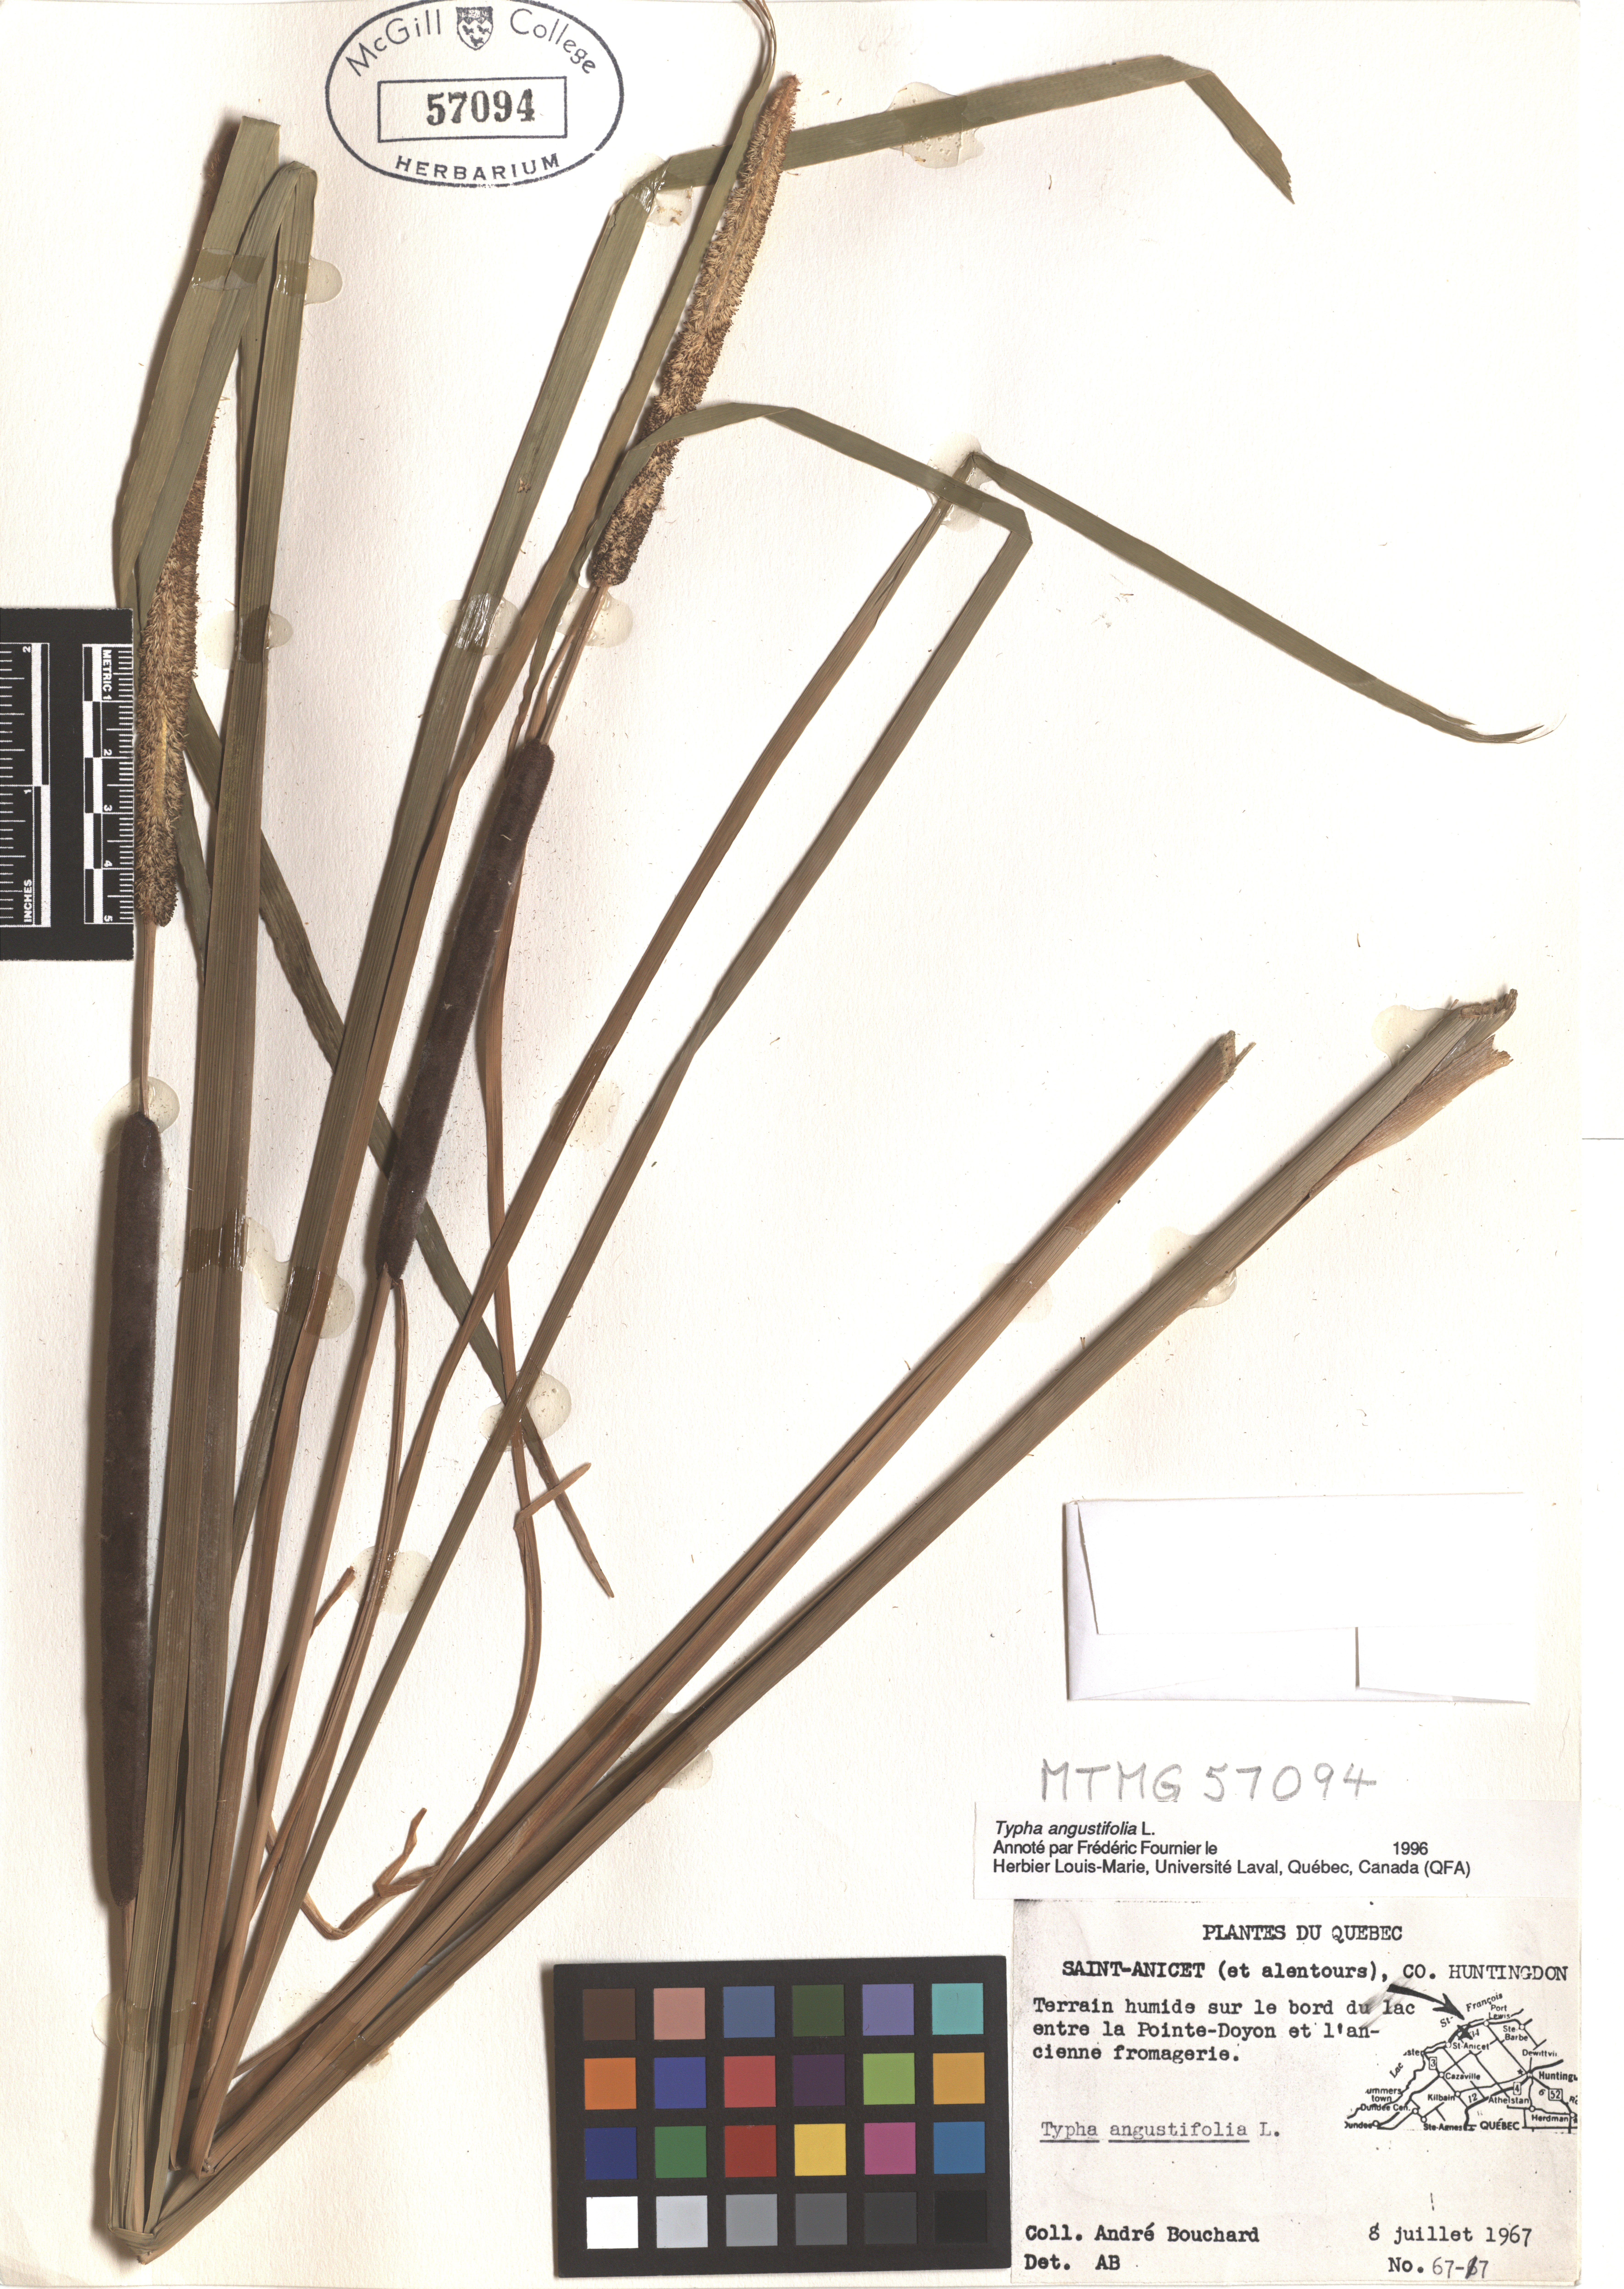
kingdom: Plantae
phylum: Tracheophyta
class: Liliopsida
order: Poales
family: Typhaceae
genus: Typha
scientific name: Typha angustifolia
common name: Lesser bulrush
